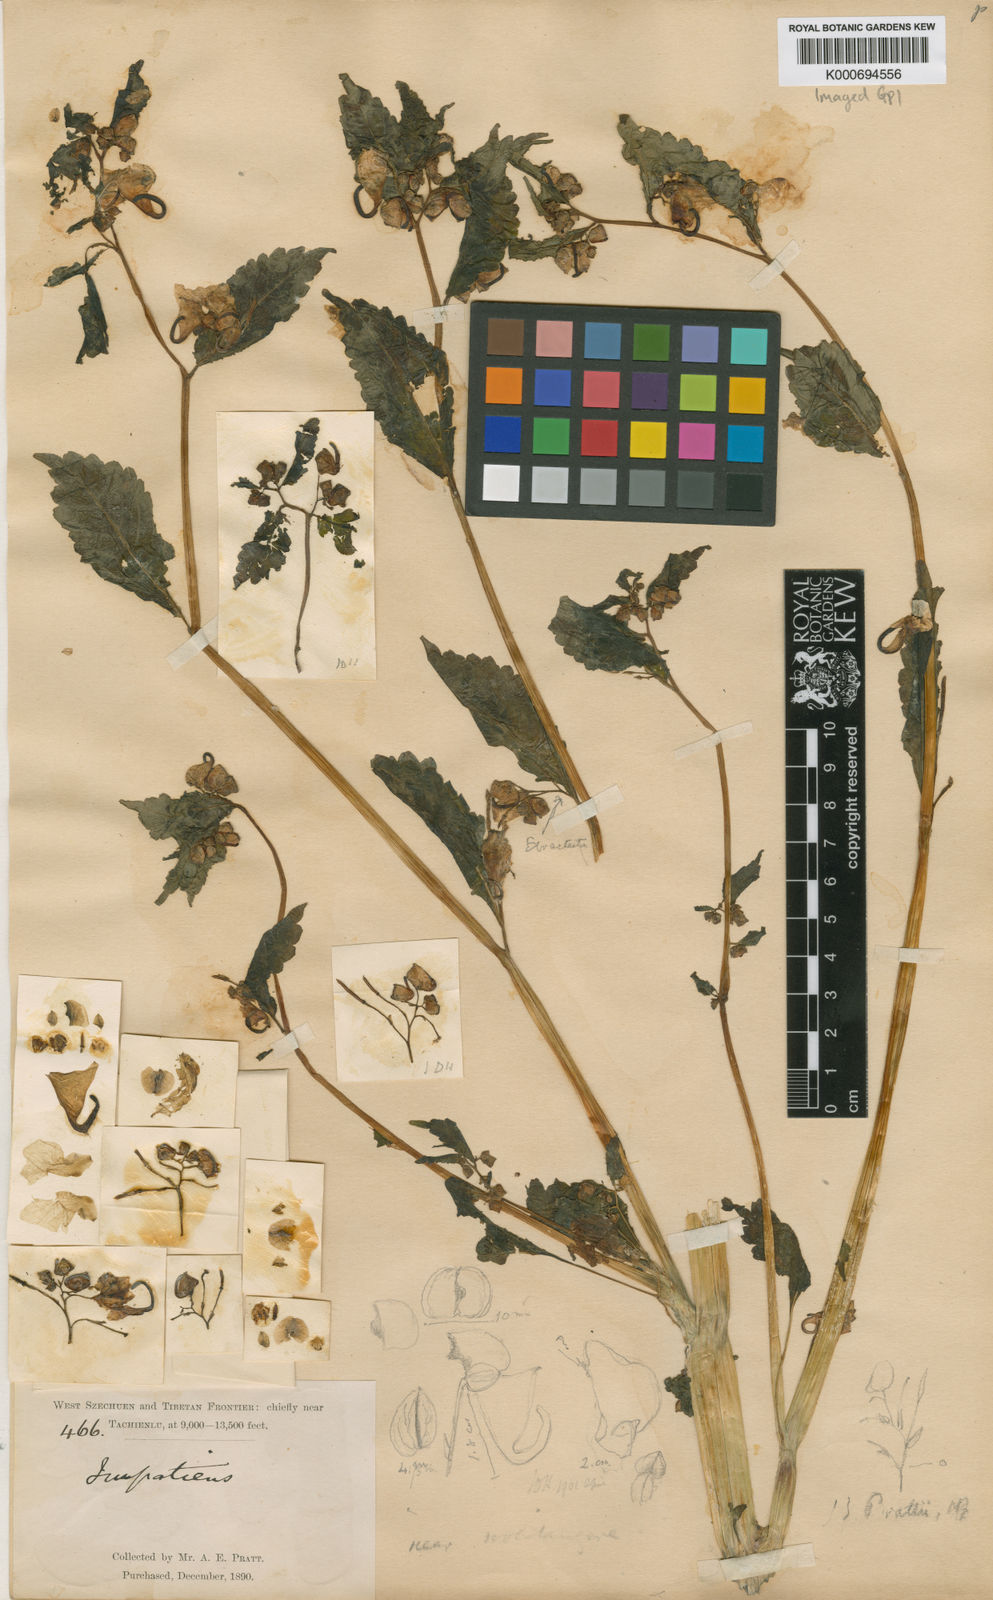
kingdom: Plantae
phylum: Tracheophyta
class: Magnoliopsida
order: Ericales
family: Balsaminaceae
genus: Impatiens
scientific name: Impatiens
